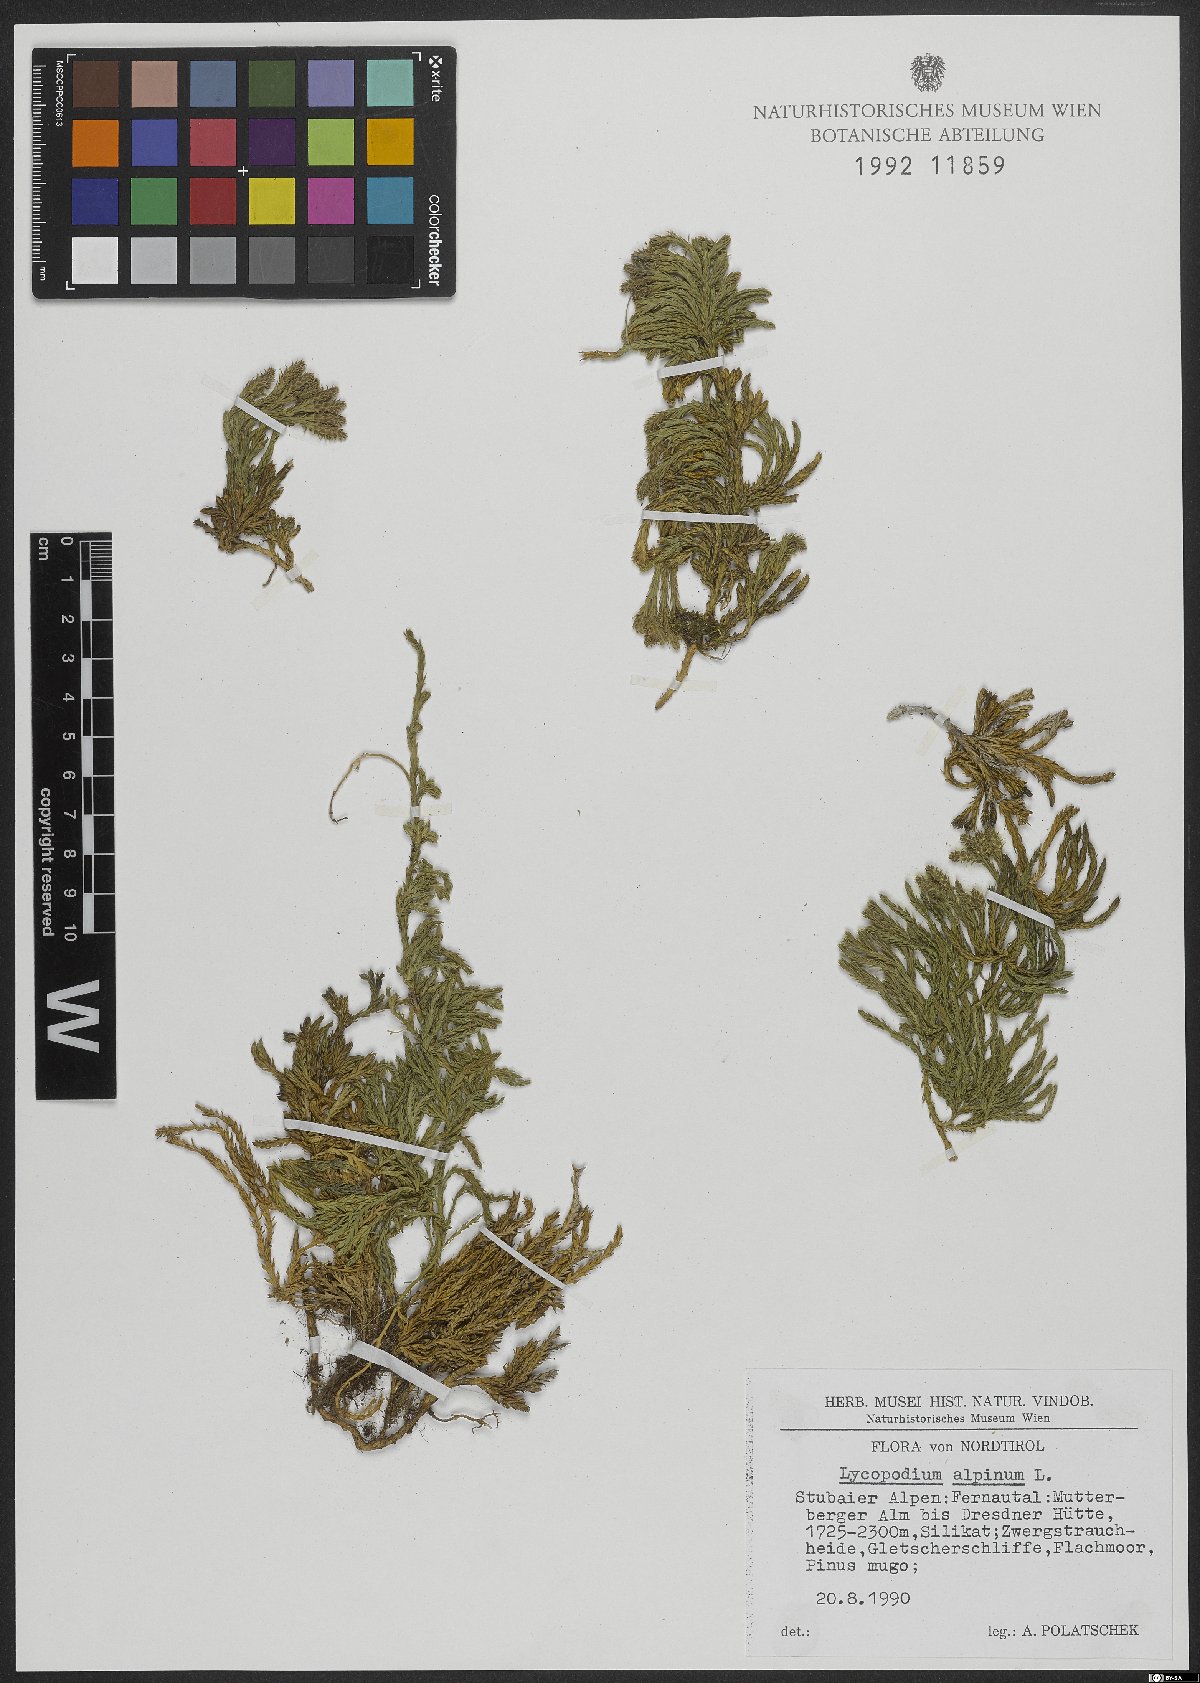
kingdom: Plantae
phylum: Tracheophyta
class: Lycopodiopsida
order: Lycopodiales
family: Lycopodiaceae
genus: Diphasiastrum
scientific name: Diphasiastrum alpinum
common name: Alpine clubmoss
